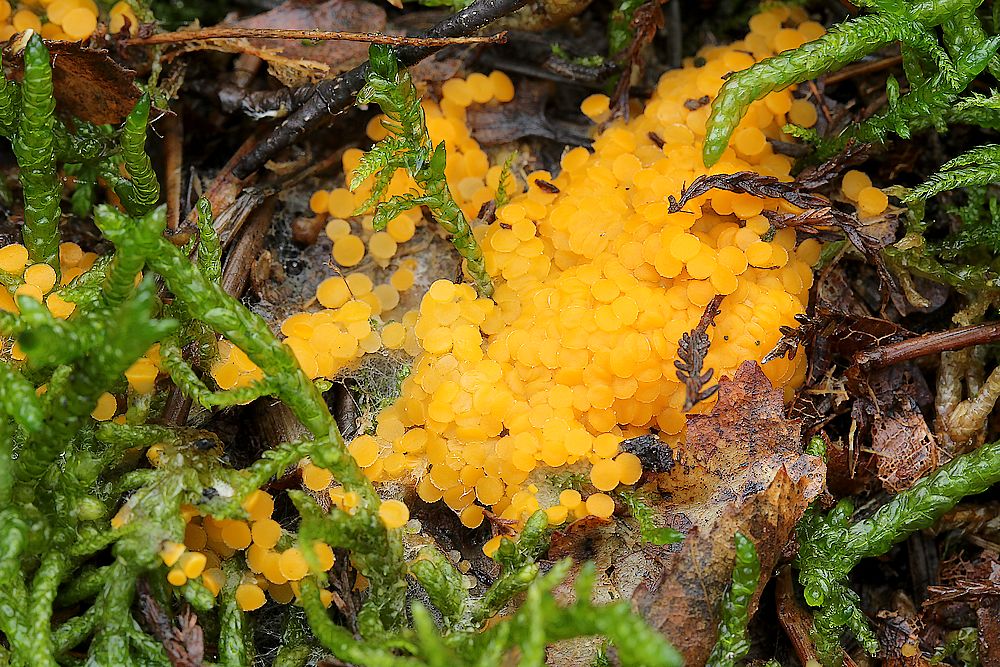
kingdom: Fungi
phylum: Ascomycota
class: Pezizomycetes
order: Pezizales
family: Pyronemataceae
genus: Byssonectria
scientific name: Byssonectria terrestris
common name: hjortebæger
